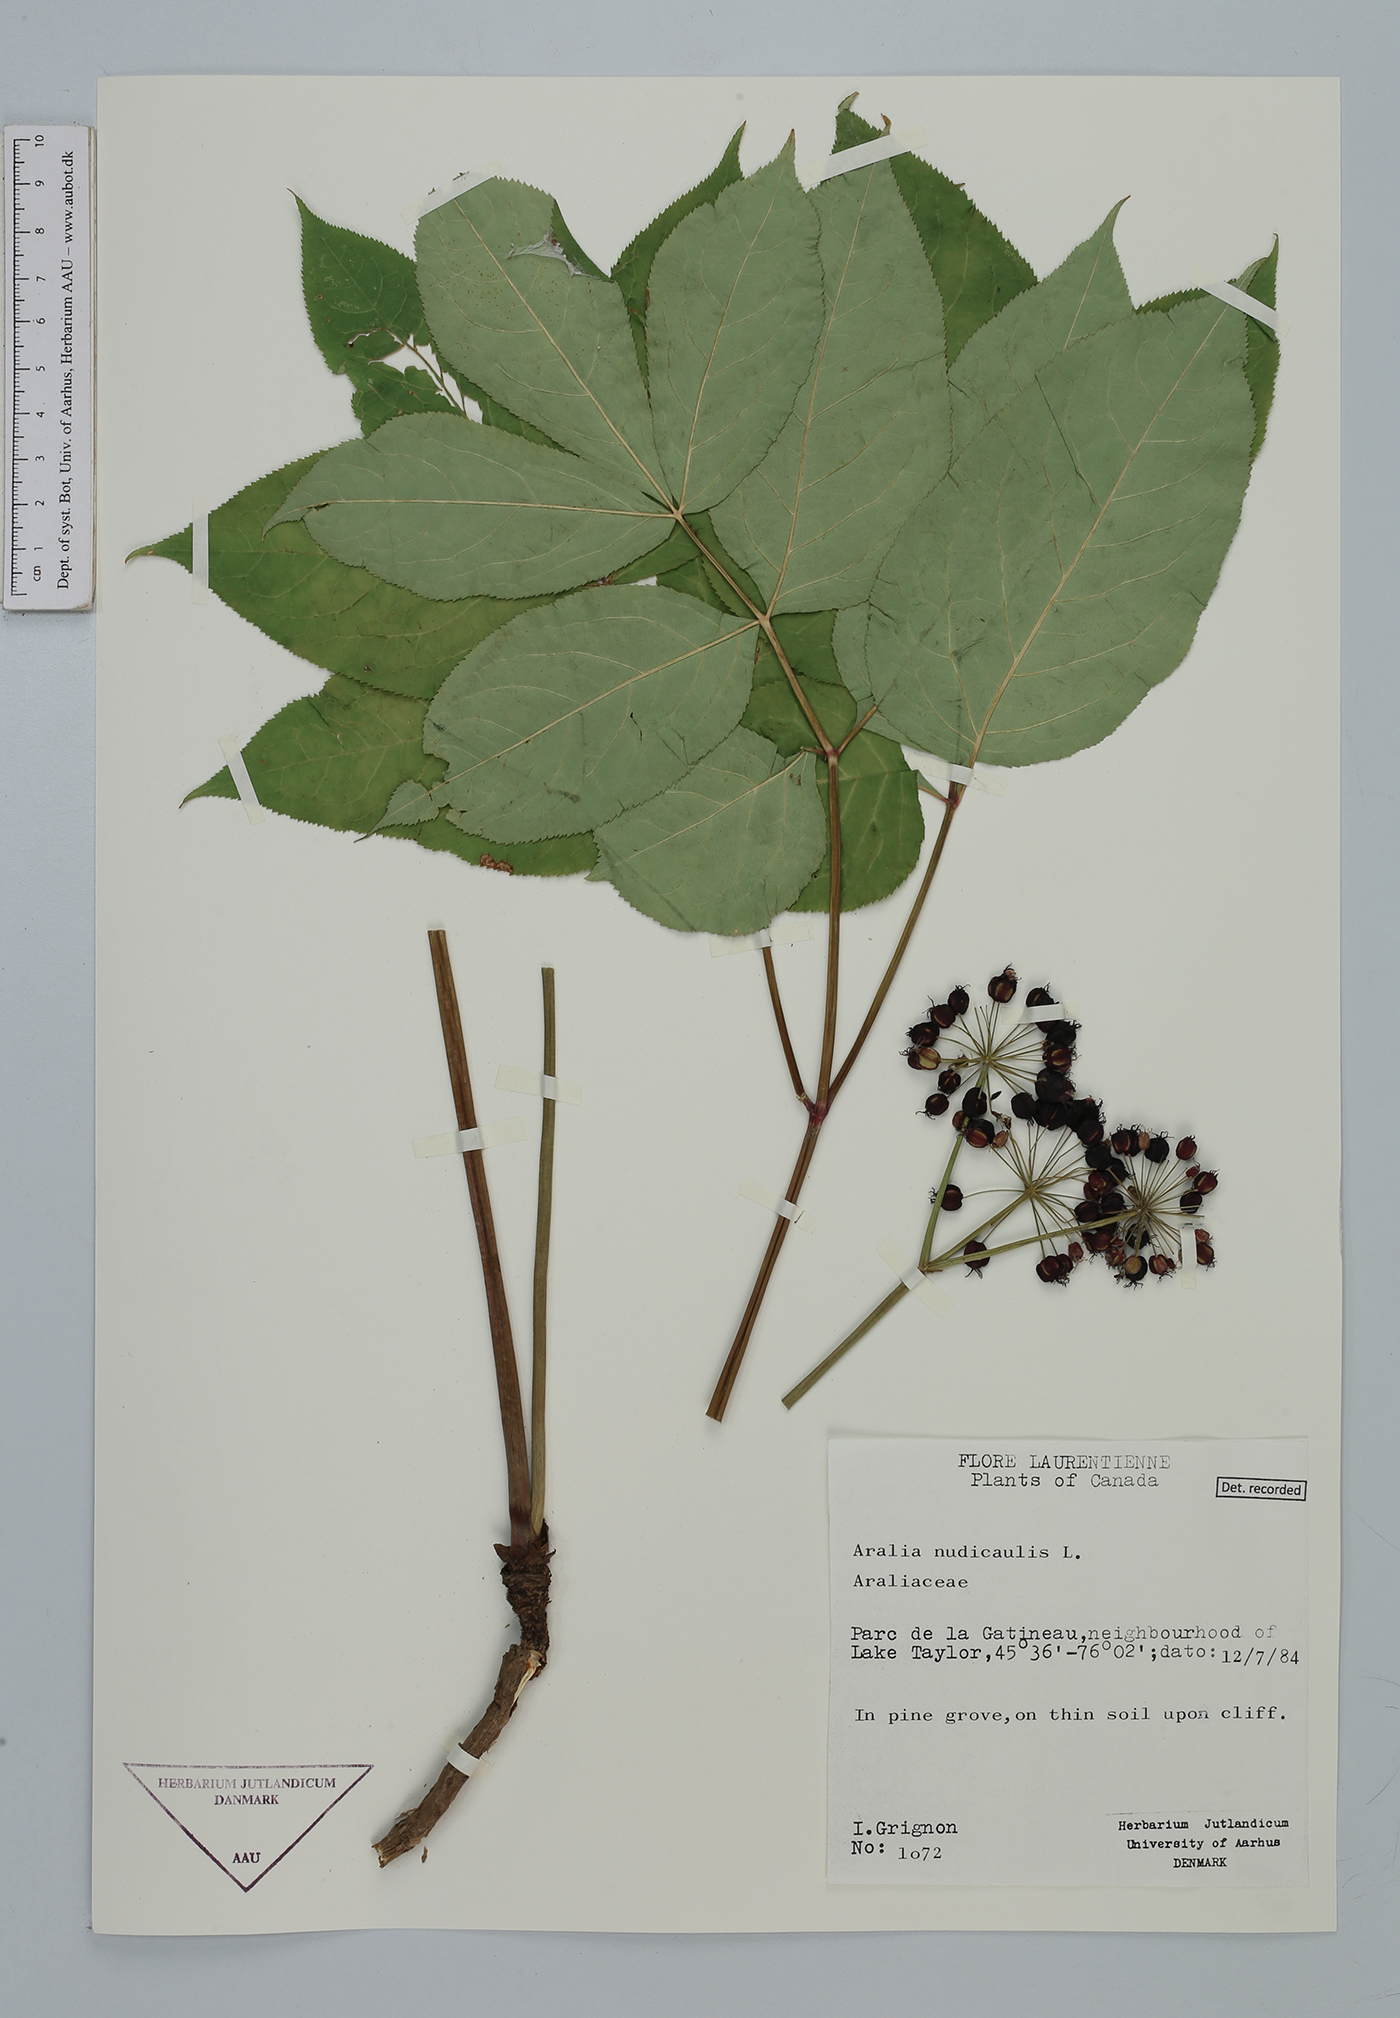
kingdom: Plantae
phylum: Tracheophyta
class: Magnoliopsida
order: Apiales
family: Araliaceae
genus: Aralia
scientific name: Aralia nudicaulis
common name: Wild sarsaparilla
